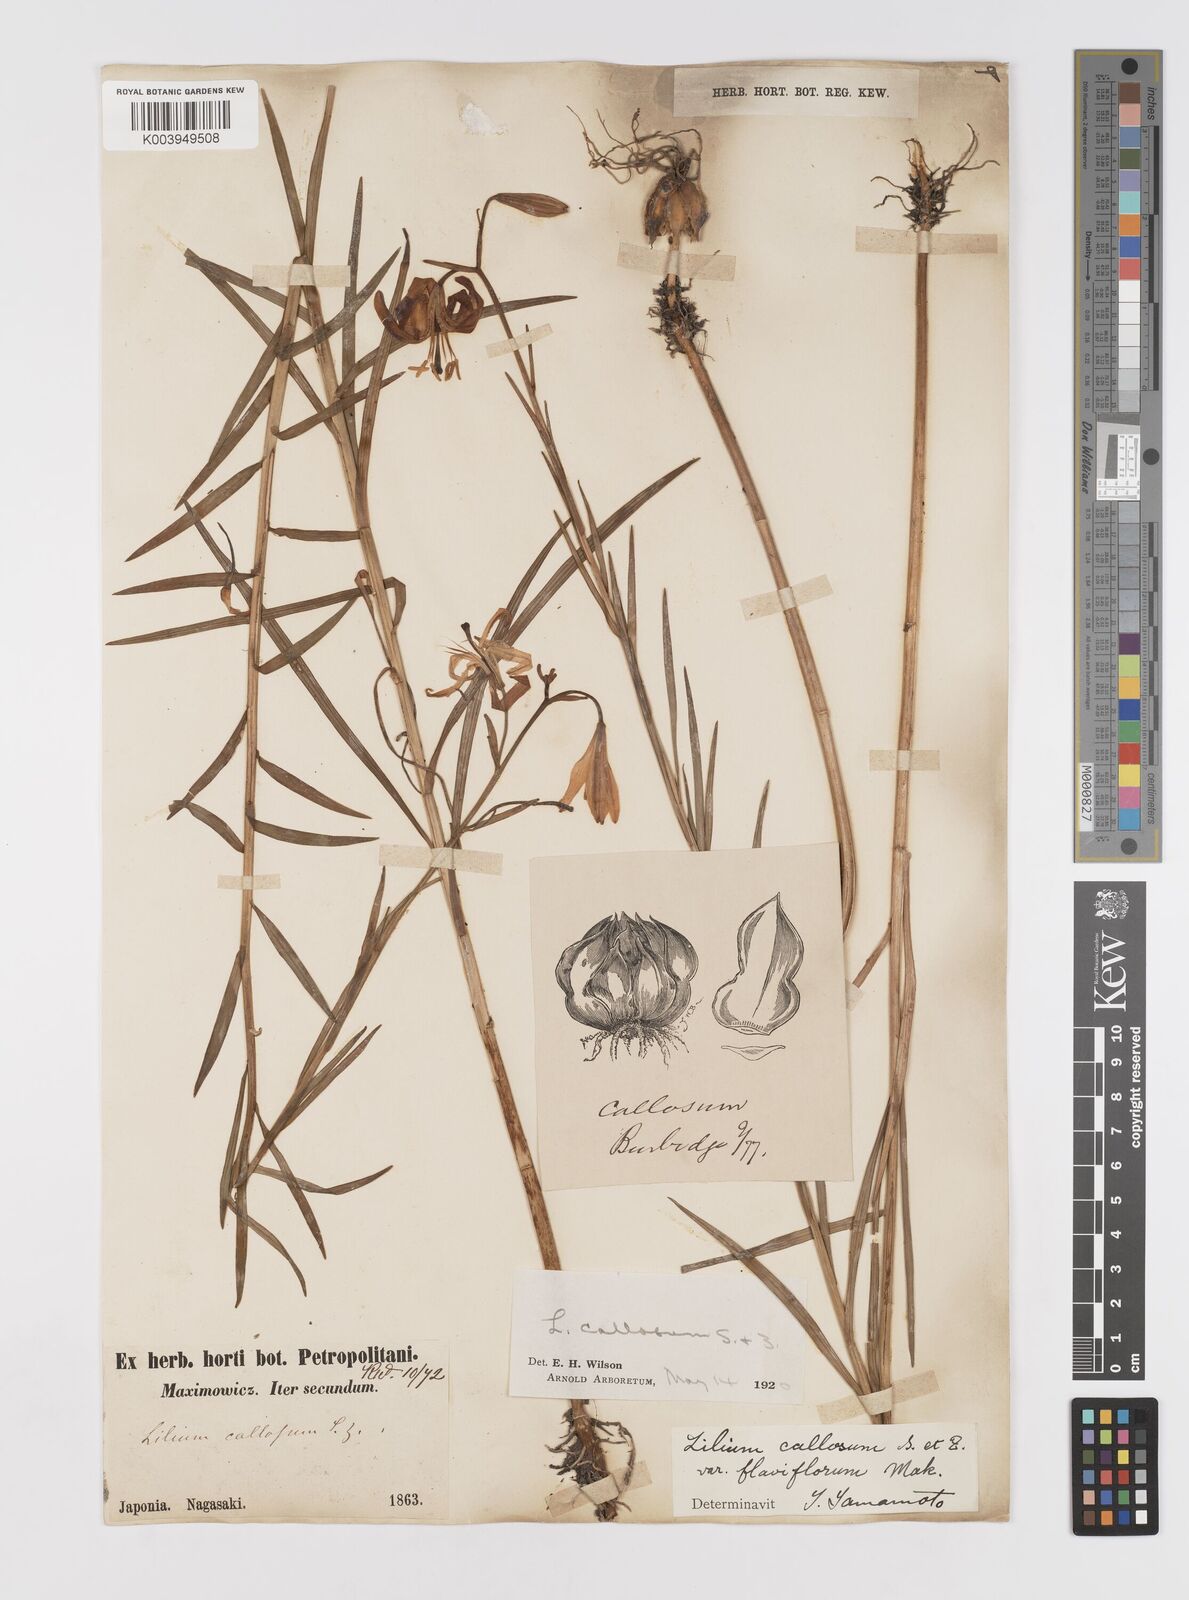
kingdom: Plantae
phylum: Tracheophyta
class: Liliopsida
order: Liliales
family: Liliaceae
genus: Lilium
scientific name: Lilium callosum
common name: Slim-stem lily
